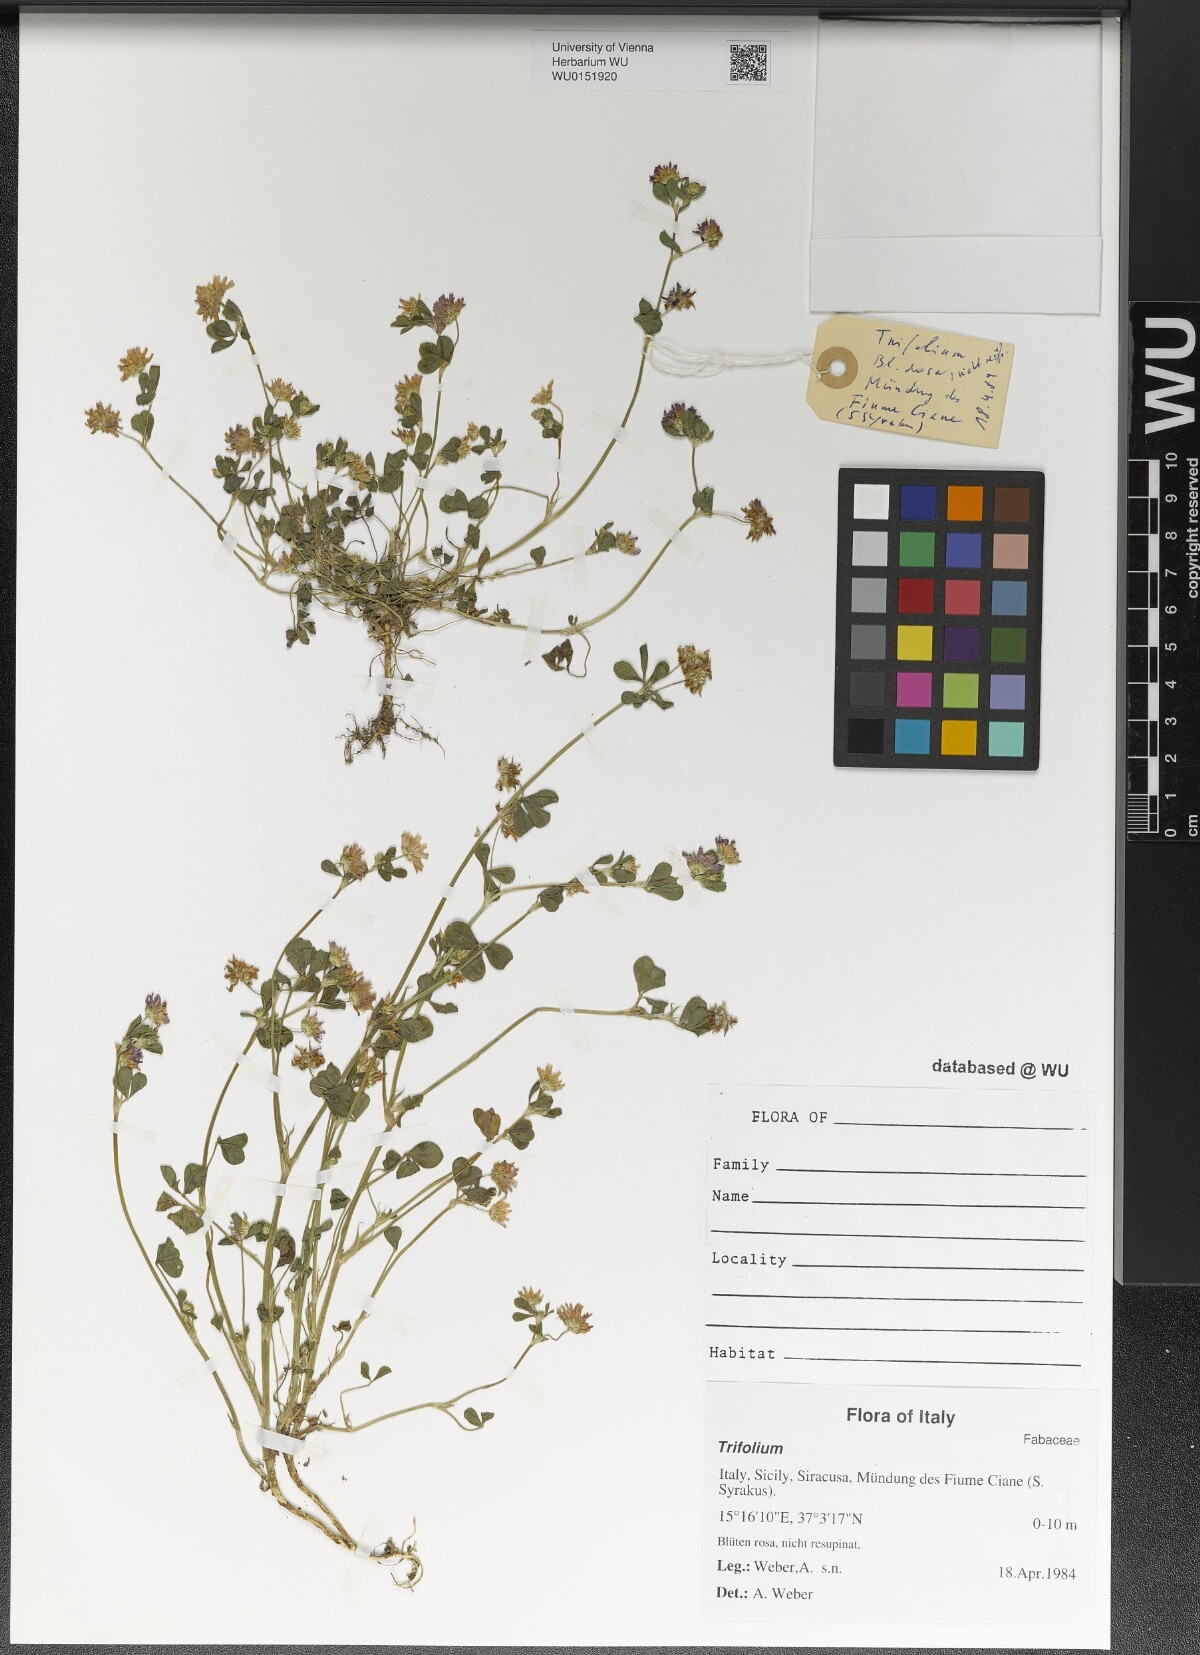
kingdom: Plantae
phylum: Tracheophyta
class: Magnoliopsida
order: Fabales
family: Fabaceae
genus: Trifolium
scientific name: Trifolium
